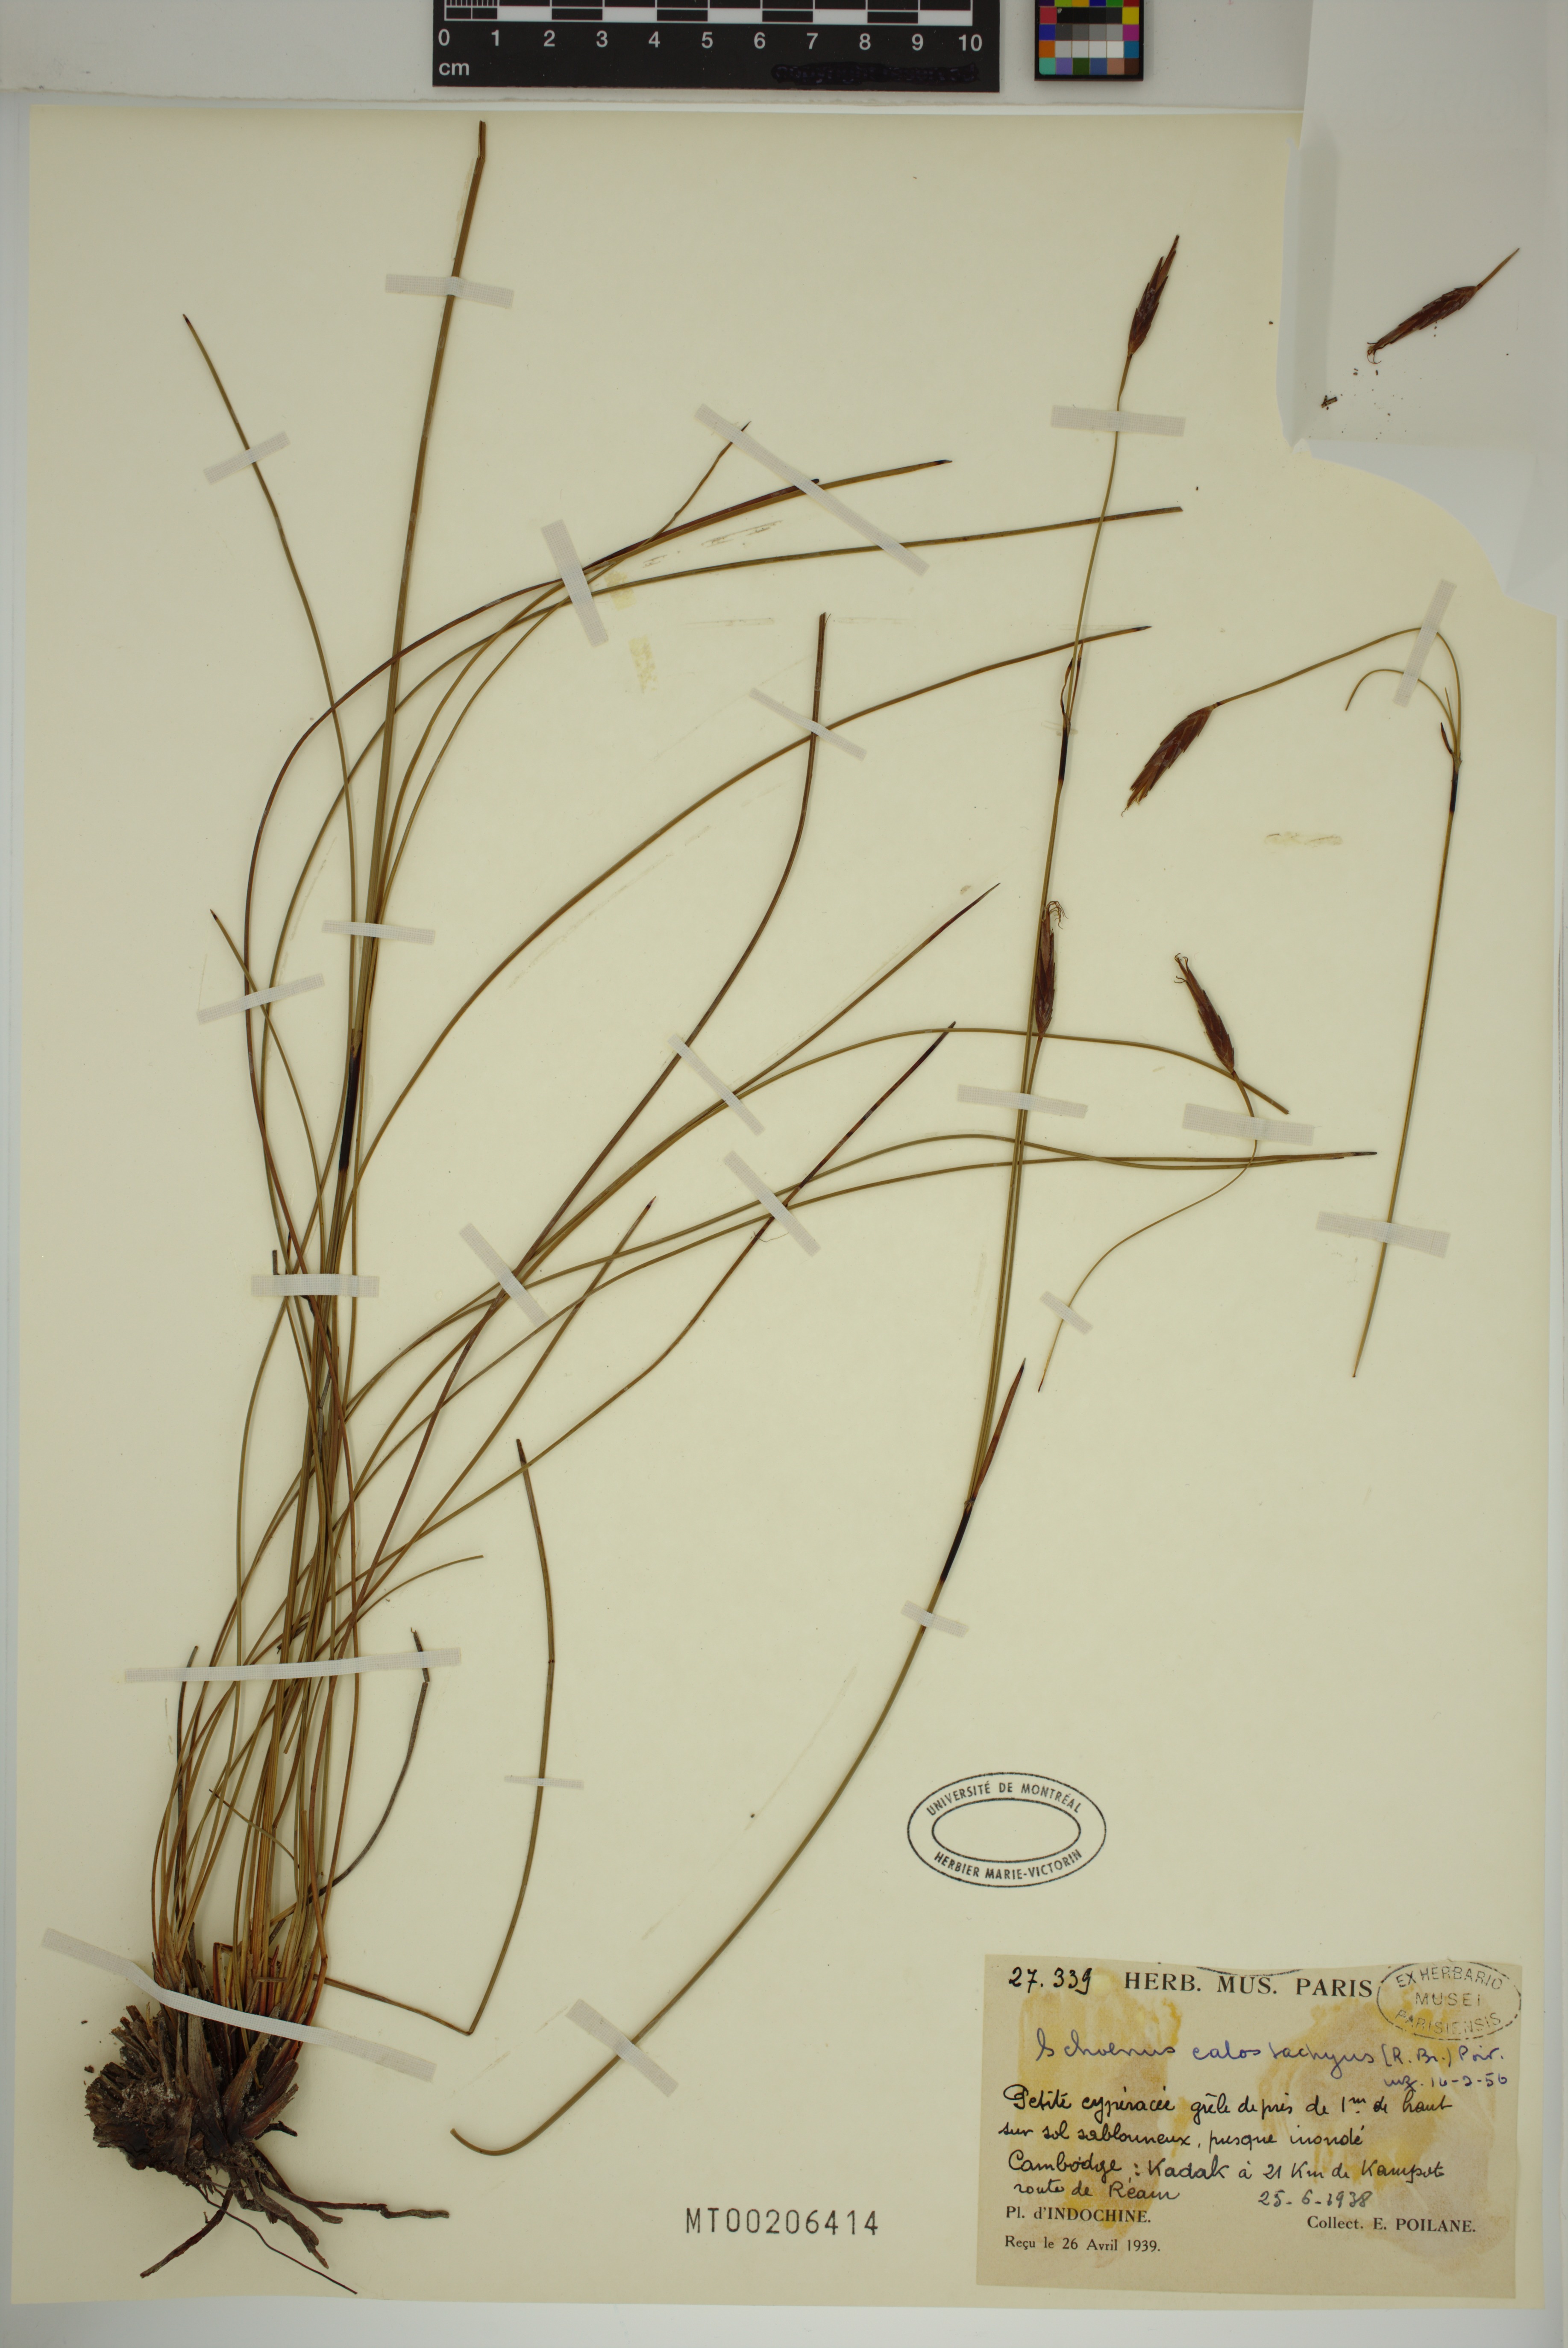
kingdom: Plantae
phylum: Tracheophyta
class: Liliopsida
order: Poales
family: Cyperaceae
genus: Schoenus
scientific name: Schoenus calostachyus
